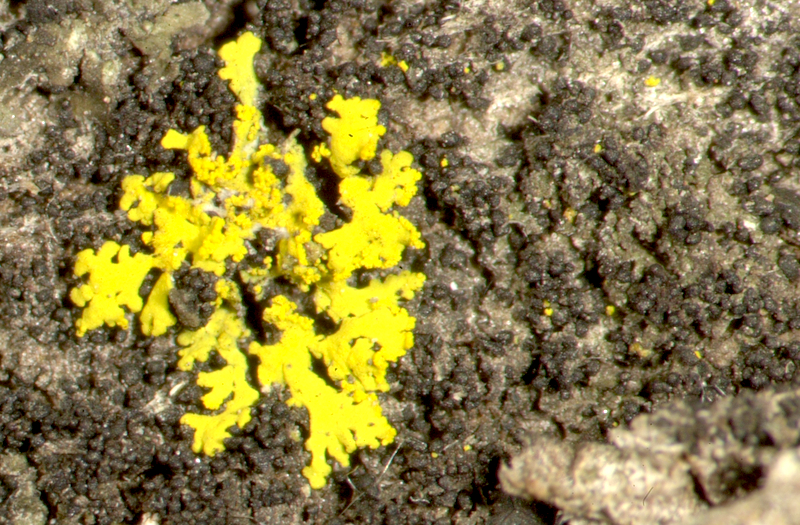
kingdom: Fungi
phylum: Ascomycota
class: Lecanoromycetes
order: Caliciales
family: Caliciaceae
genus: Pyxine
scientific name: Pyxine cocoes
